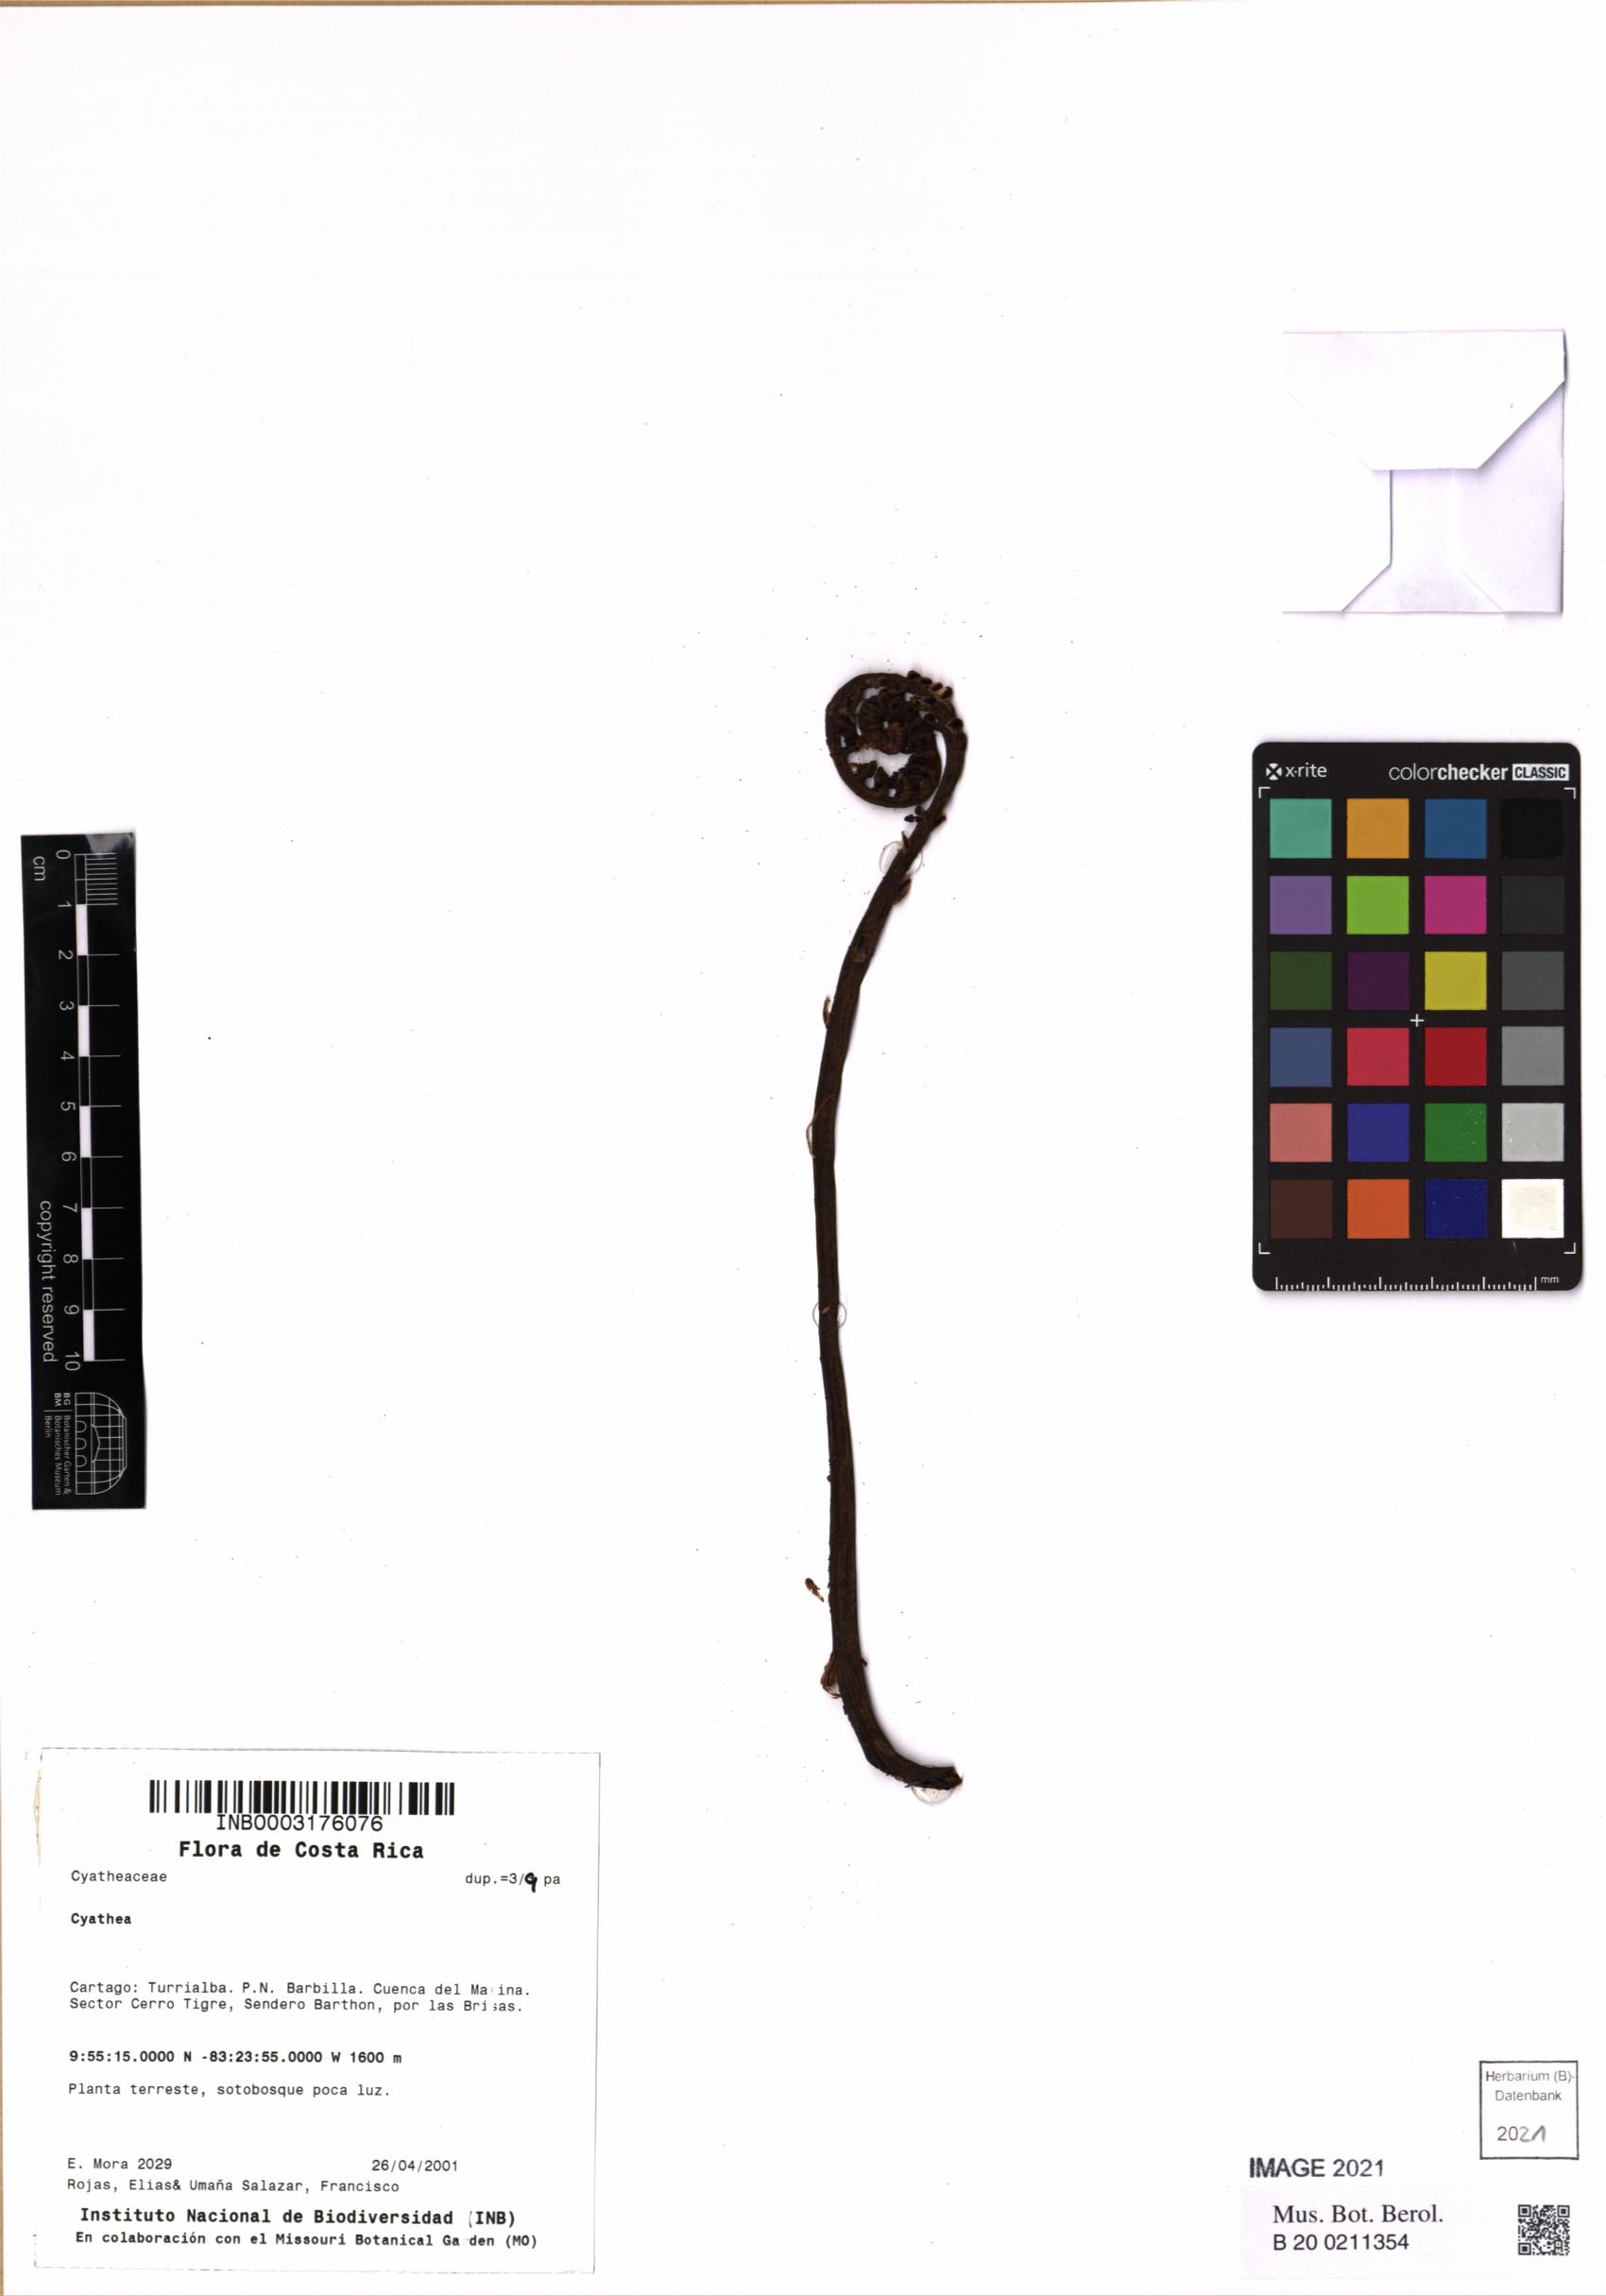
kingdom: Plantae
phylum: Tracheophyta
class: Polypodiopsida
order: Cyatheales
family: Cyatheaceae
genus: Cyathea
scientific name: Cyathea
